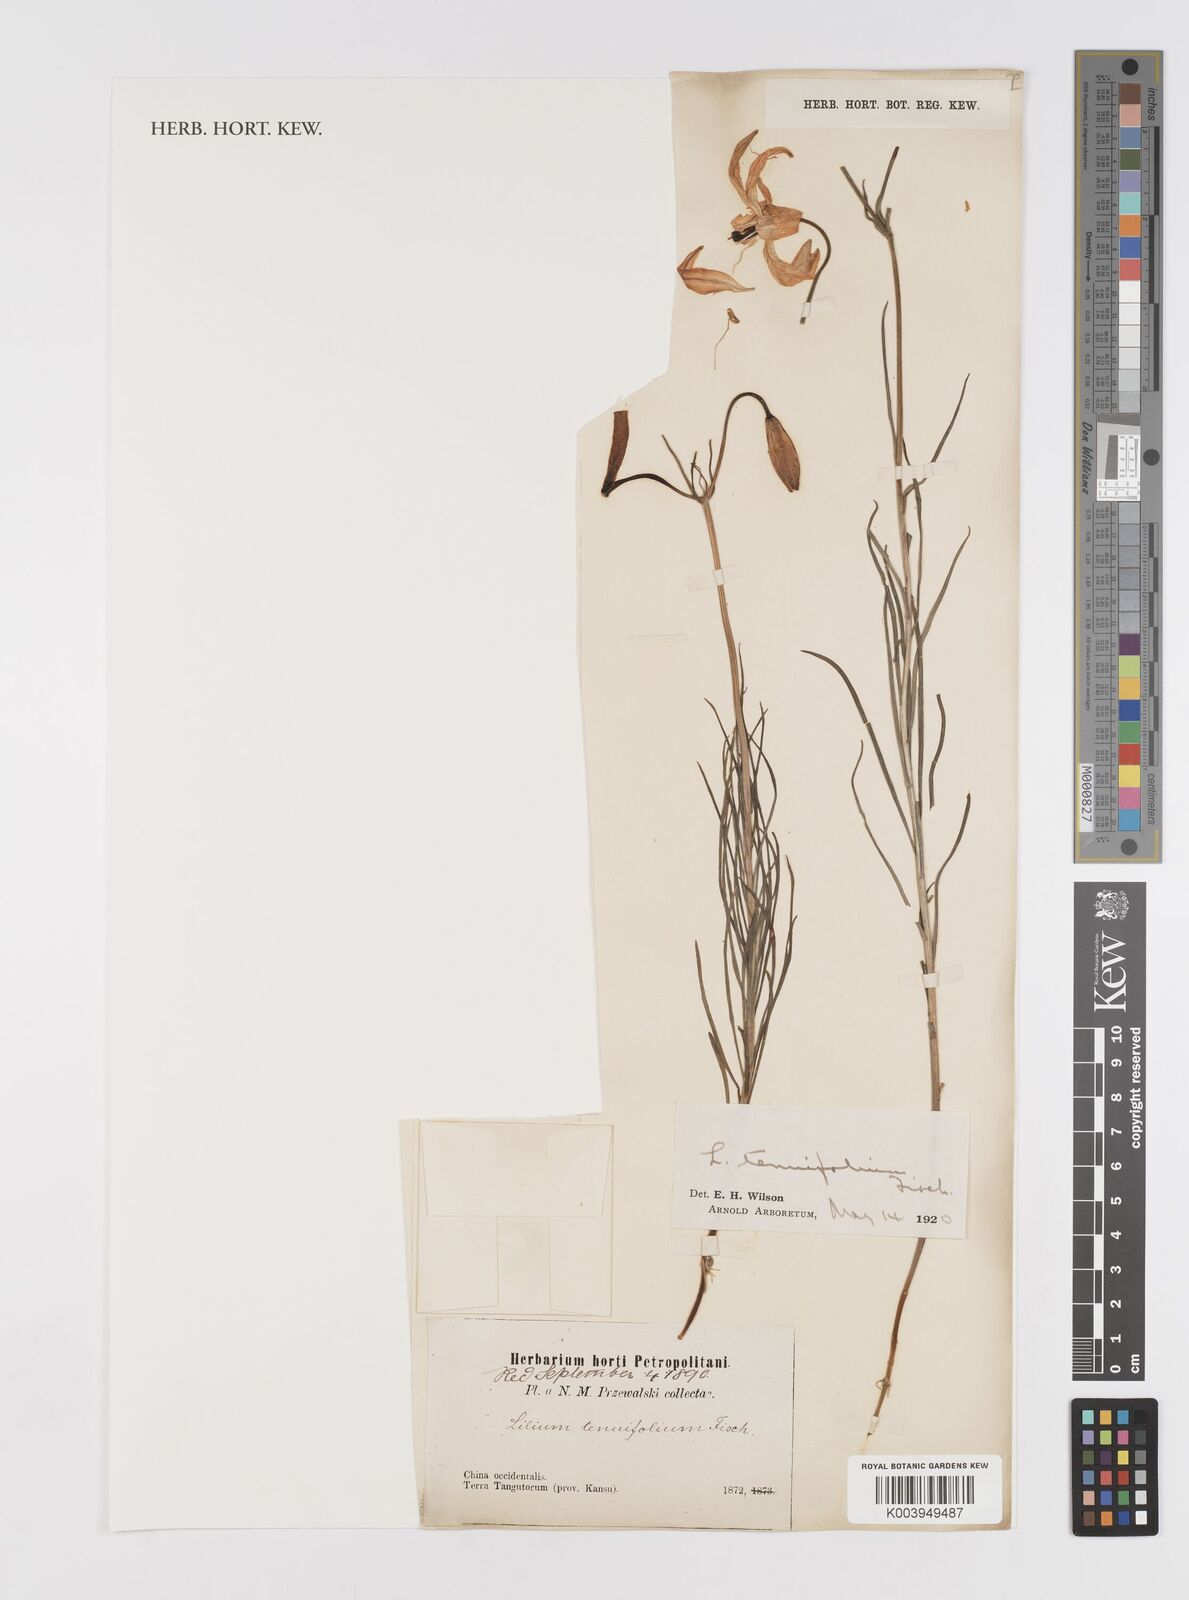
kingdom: Plantae
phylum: Tracheophyta
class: Liliopsida
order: Liliales
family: Liliaceae
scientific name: Liliaceae
